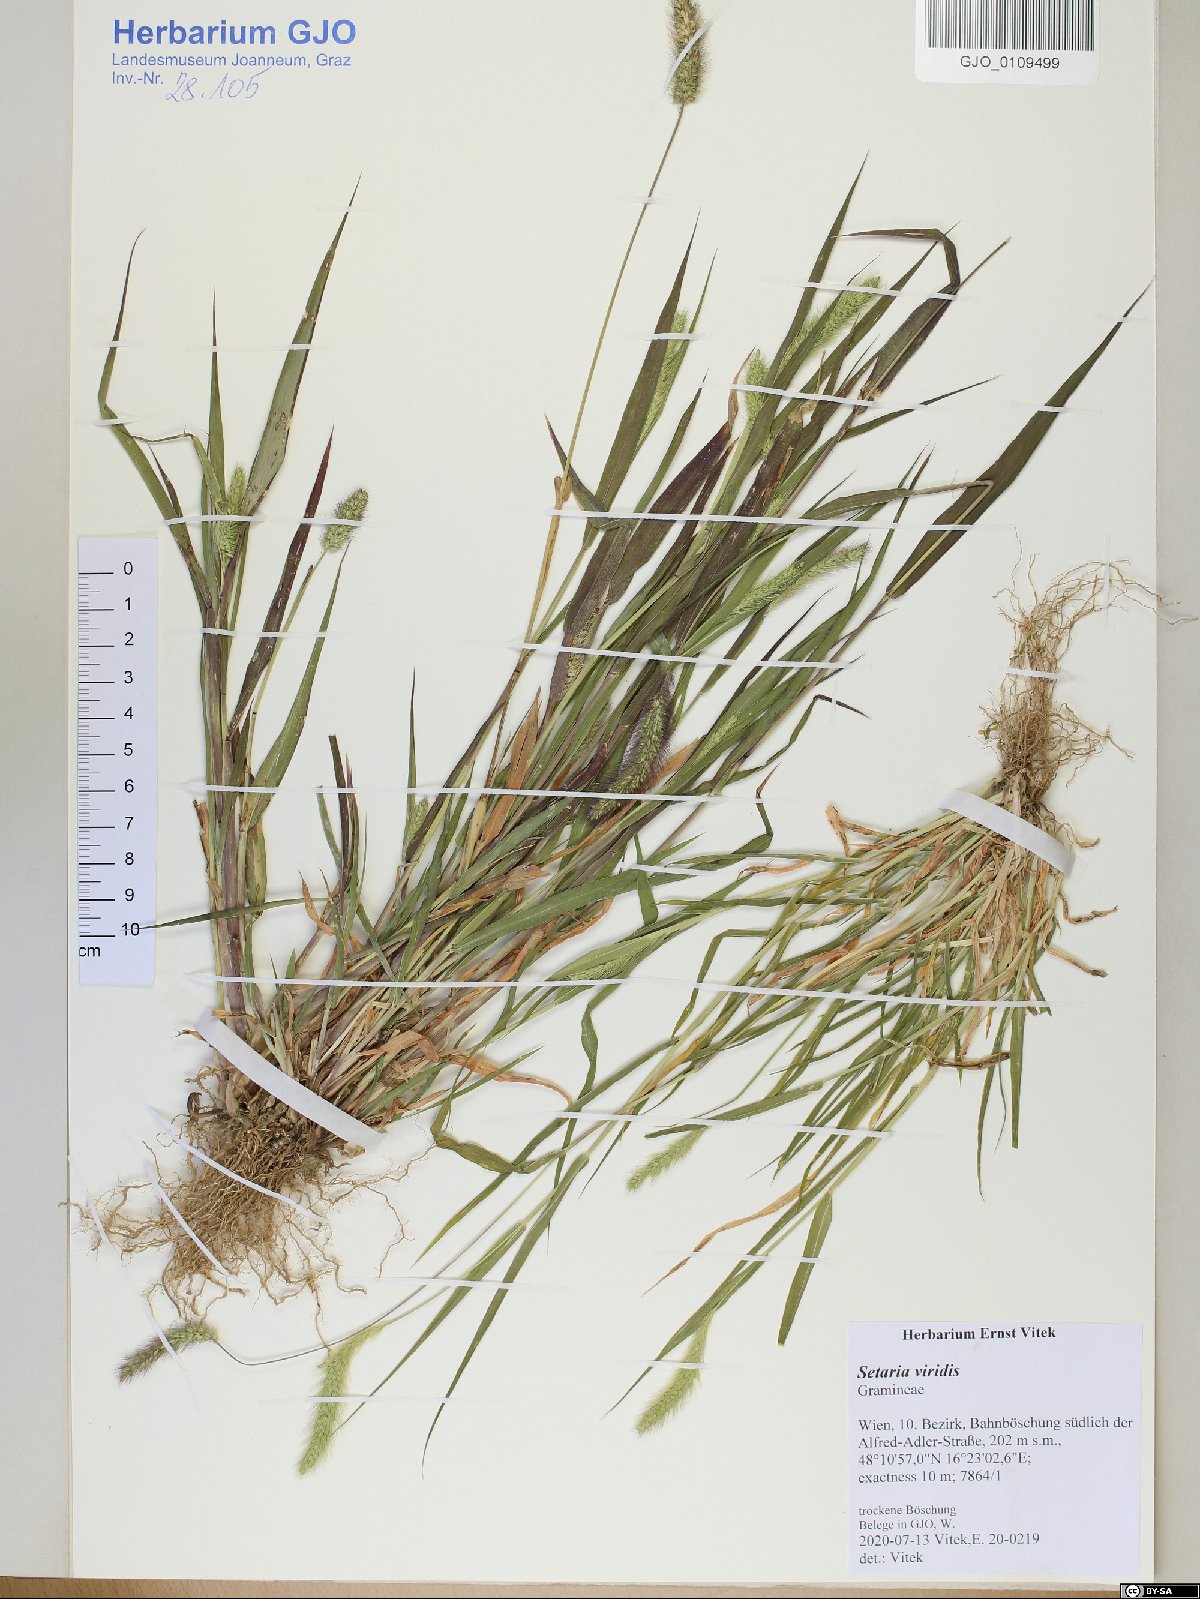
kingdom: Plantae
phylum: Tracheophyta
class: Liliopsida
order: Poales
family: Poaceae
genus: Setaria
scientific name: Setaria viridis
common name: Green bristlegrass
